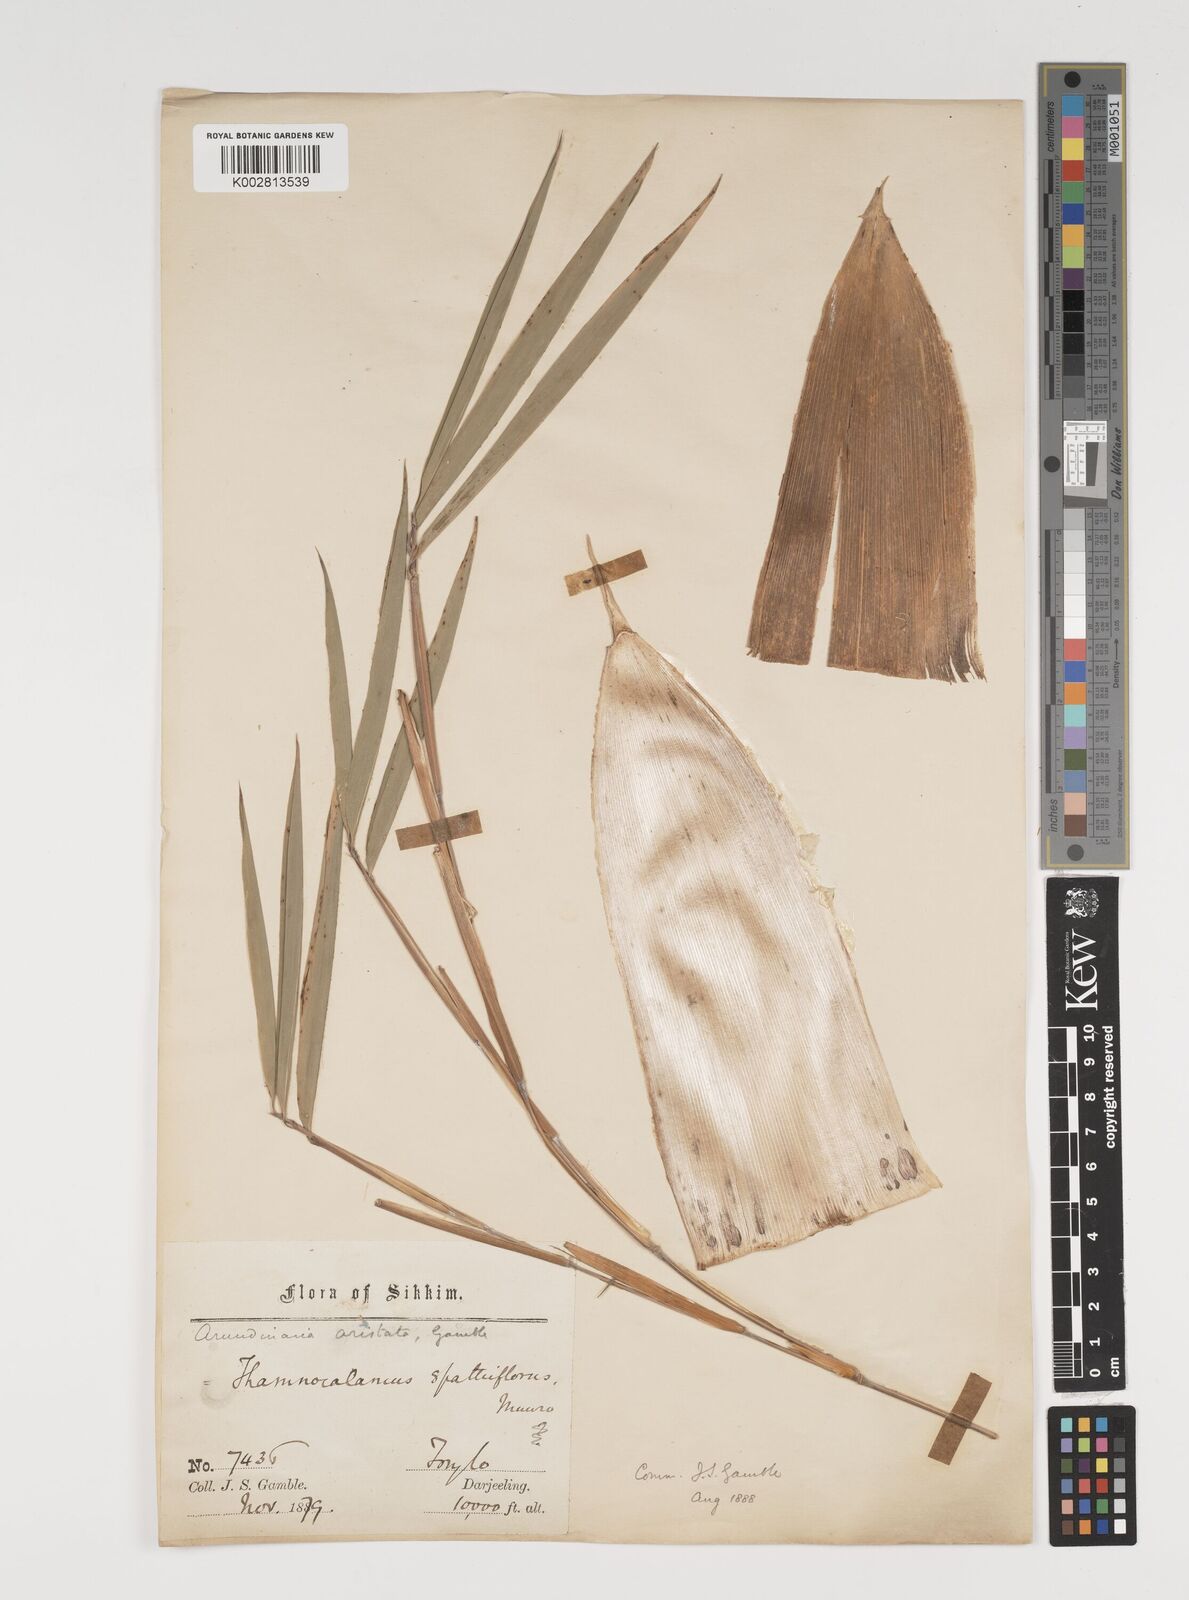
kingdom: Plantae
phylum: Tracheophyta
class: Liliopsida
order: Poales
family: Poaceae
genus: Thamnocalamus
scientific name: Thamnocalamus spathiflorus
